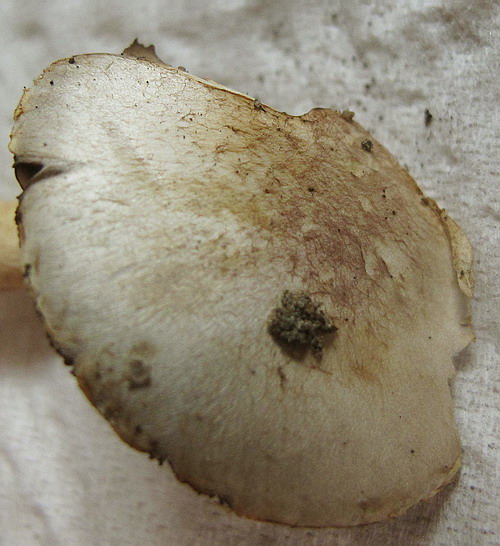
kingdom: Fungi
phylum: Basidiomycota
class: Agaricomycetes
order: Agaricales
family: Agaricaceae
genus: Agaricus
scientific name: Agaricus dulcidulus
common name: blegrød champignon
